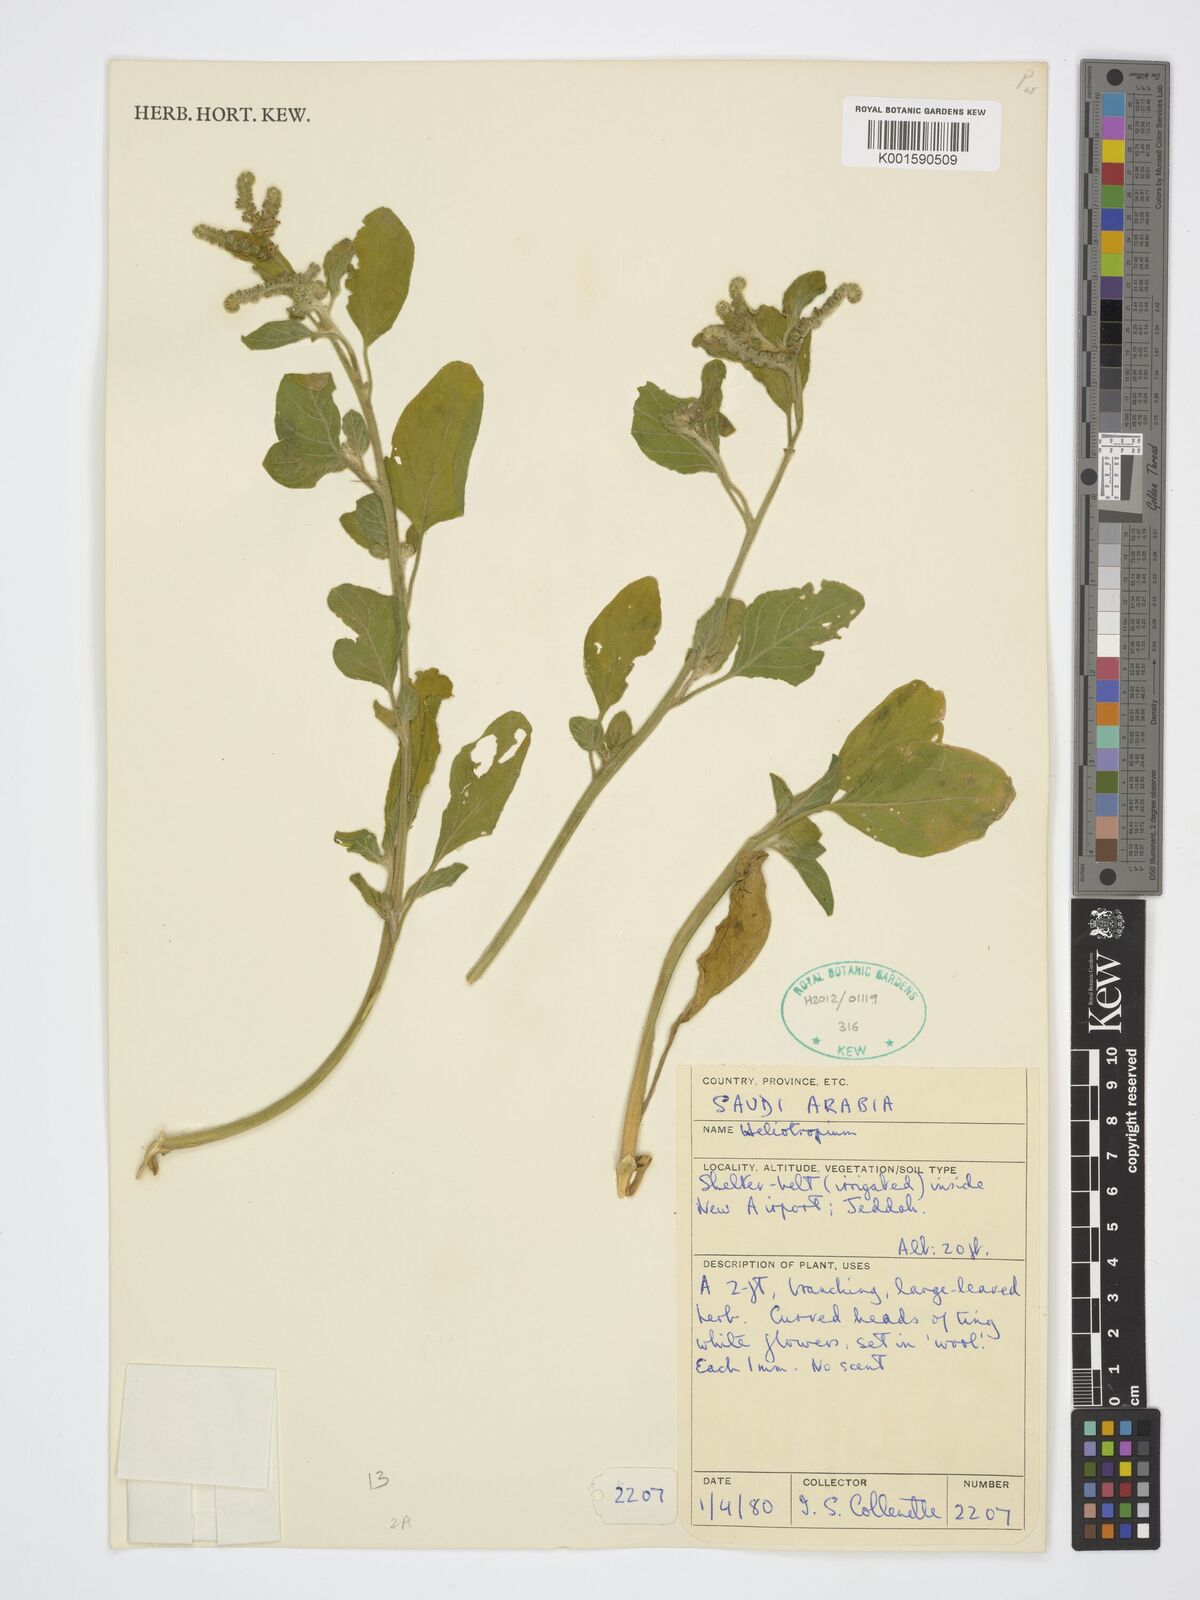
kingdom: Plantae
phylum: Tracheophyta
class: Magnoliopsida
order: Boraginales
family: Heliotropiaceae
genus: Heliotropium
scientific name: Heliotropium
